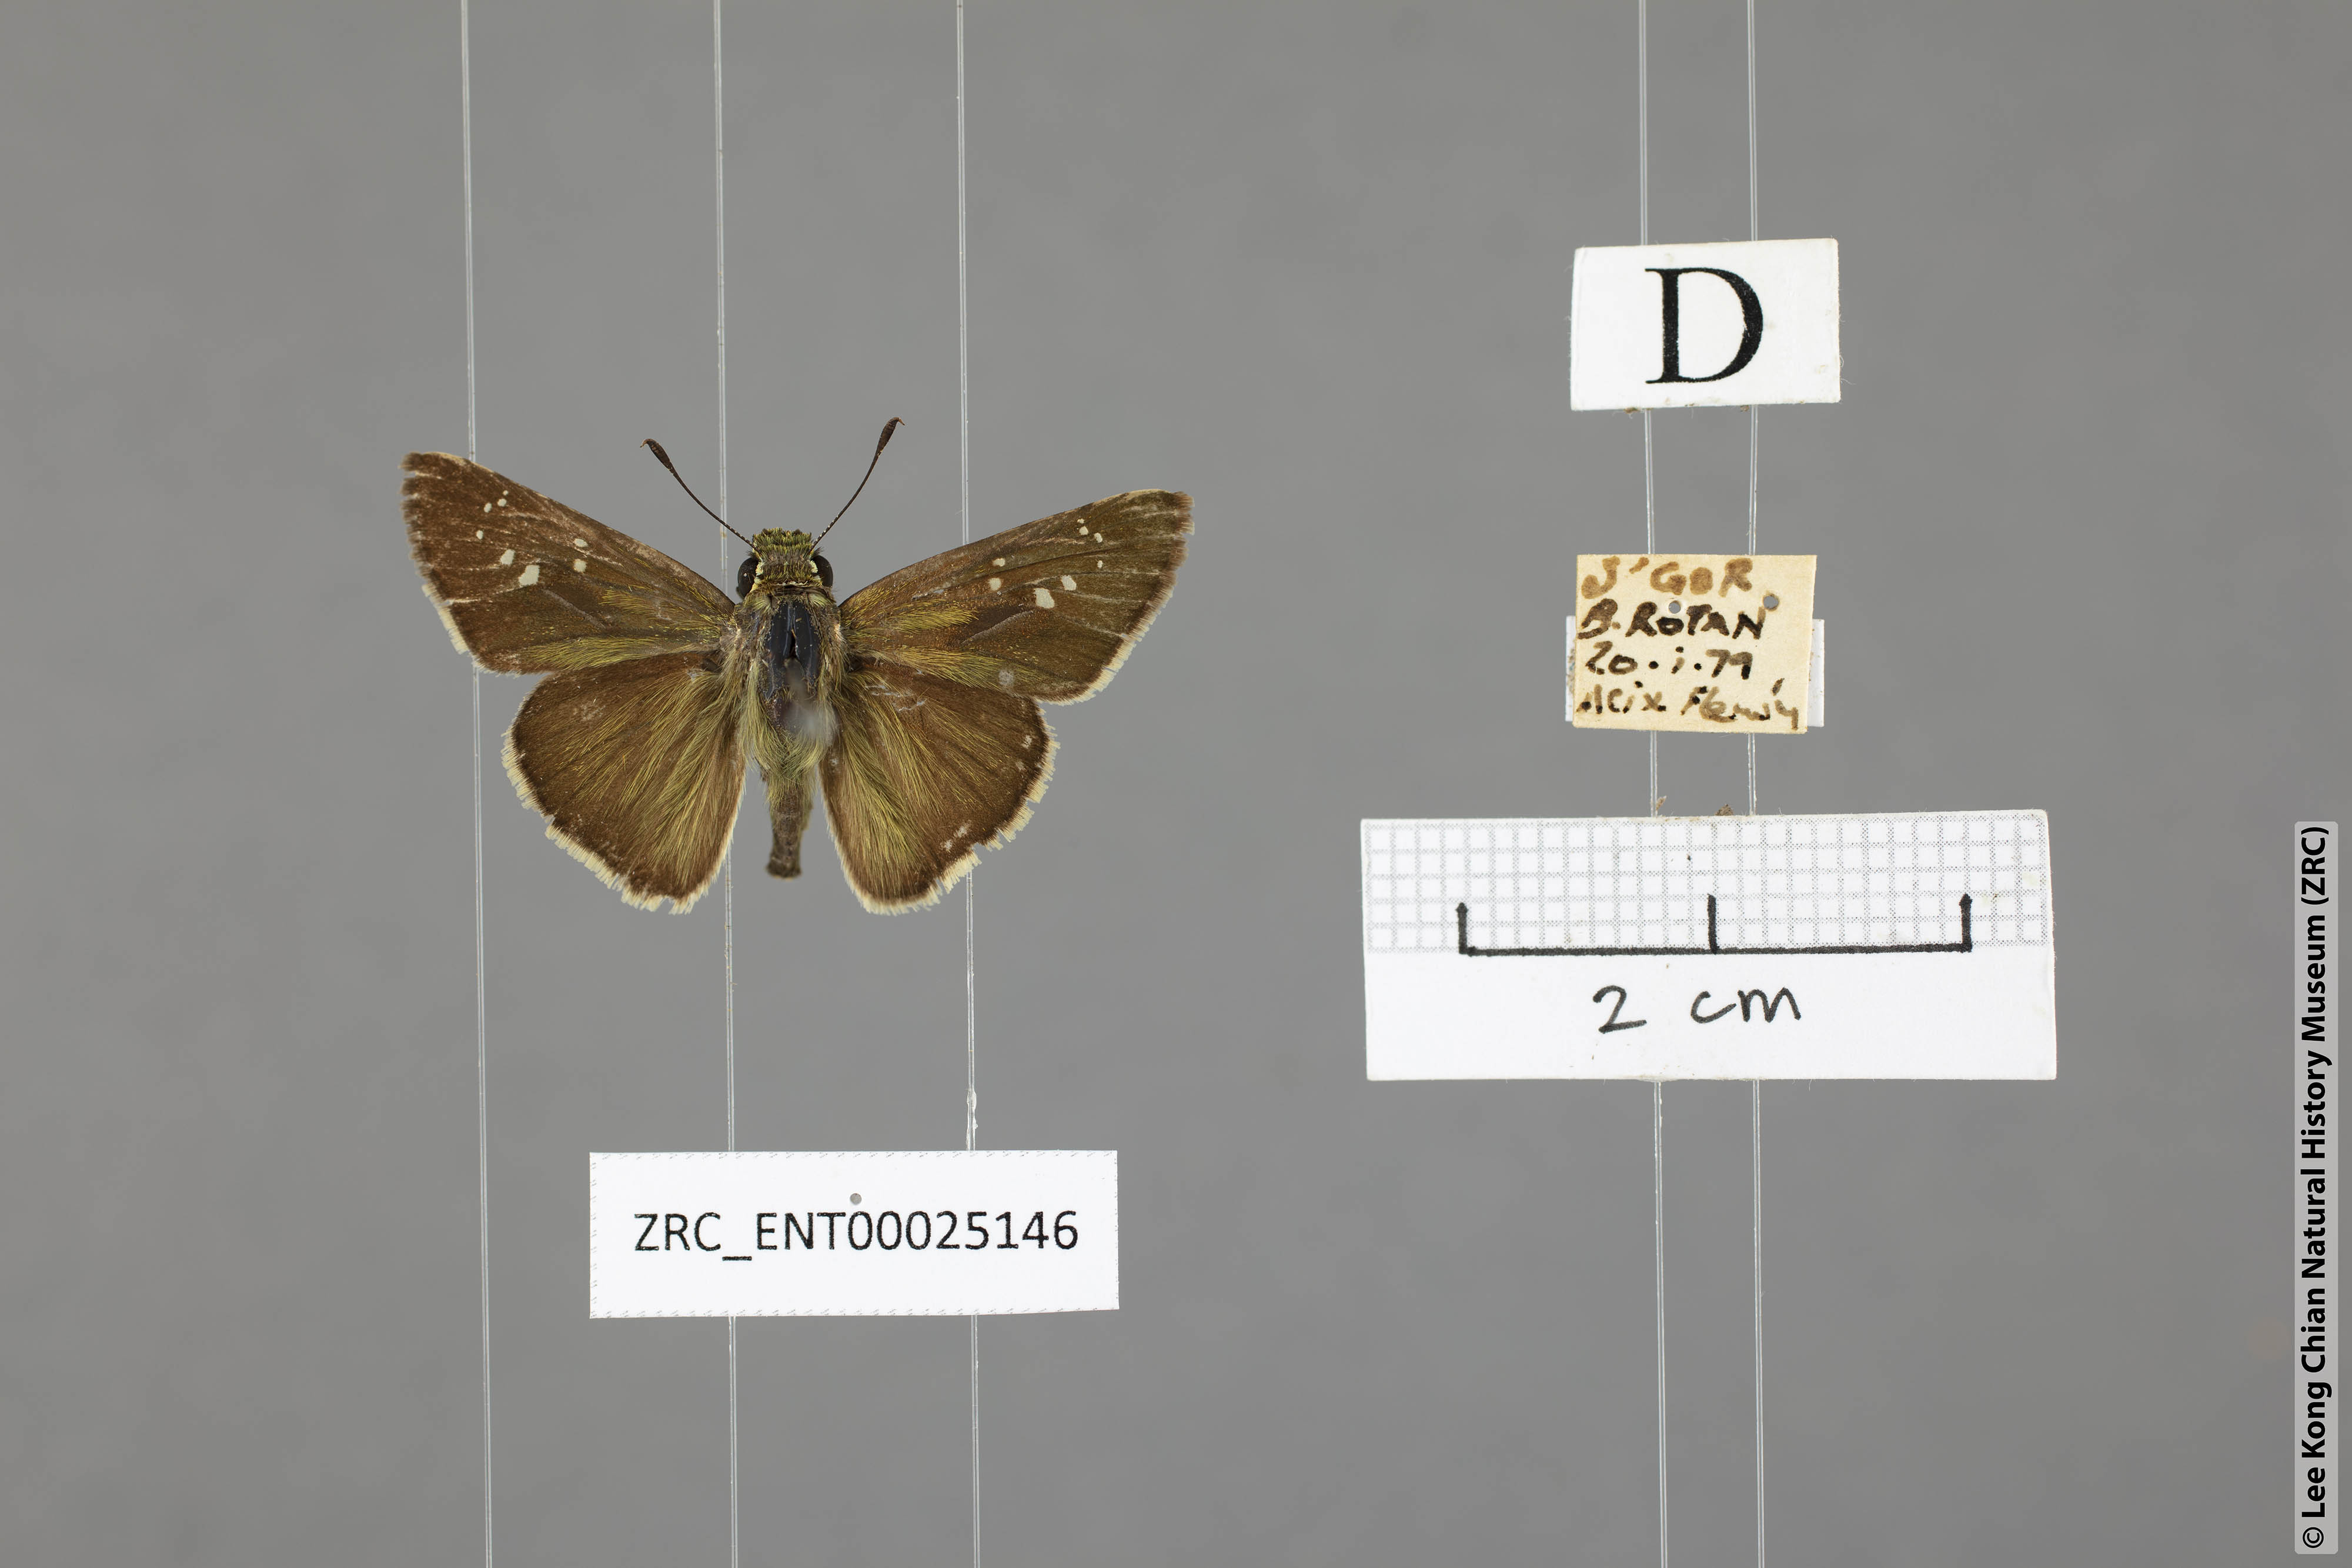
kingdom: Animalia
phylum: Arthropoda
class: Insecta
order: Lepidoptera
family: Hesperiidae
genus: Pelopidas
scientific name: Pelopidas mathias
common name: Black-branded swift
